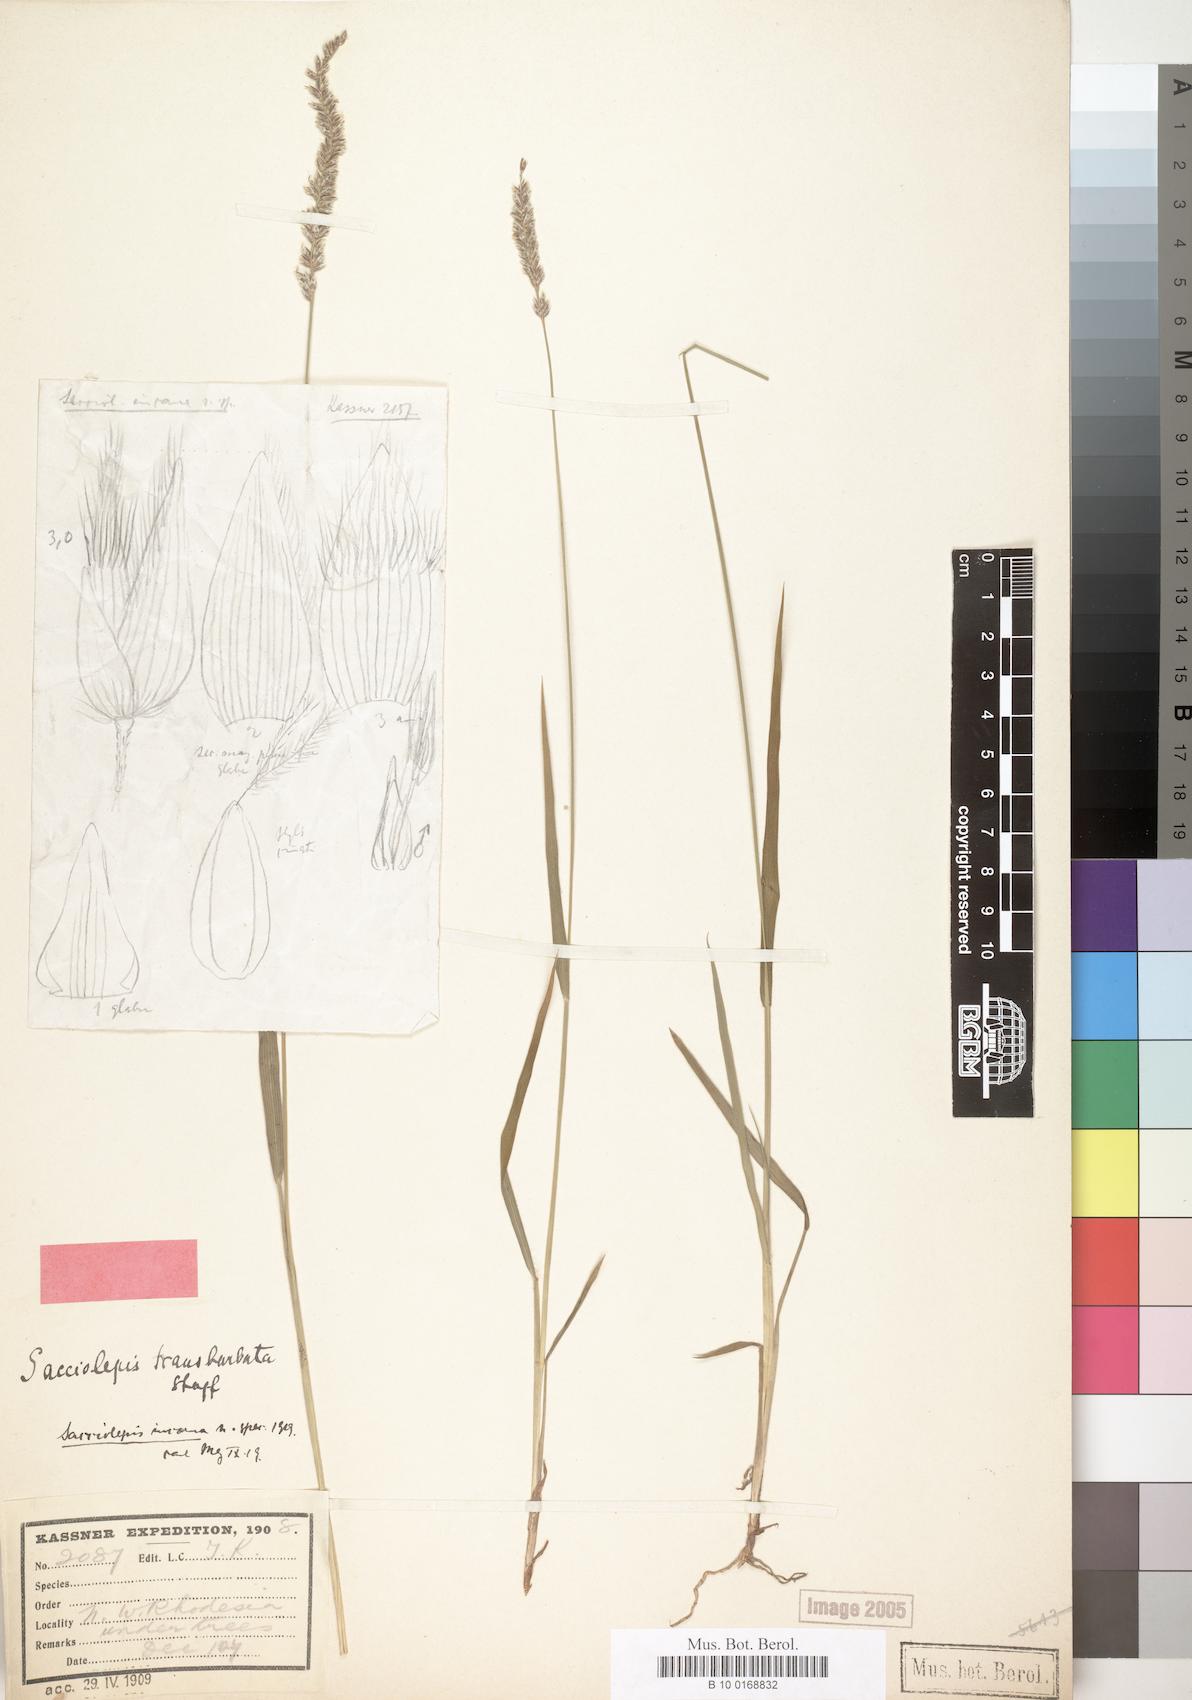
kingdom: Plantae
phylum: Tracheophyta
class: Liliopsida
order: Poales
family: Poaceae
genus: Sacciolepis
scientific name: Sacciolepis transbarbuta
